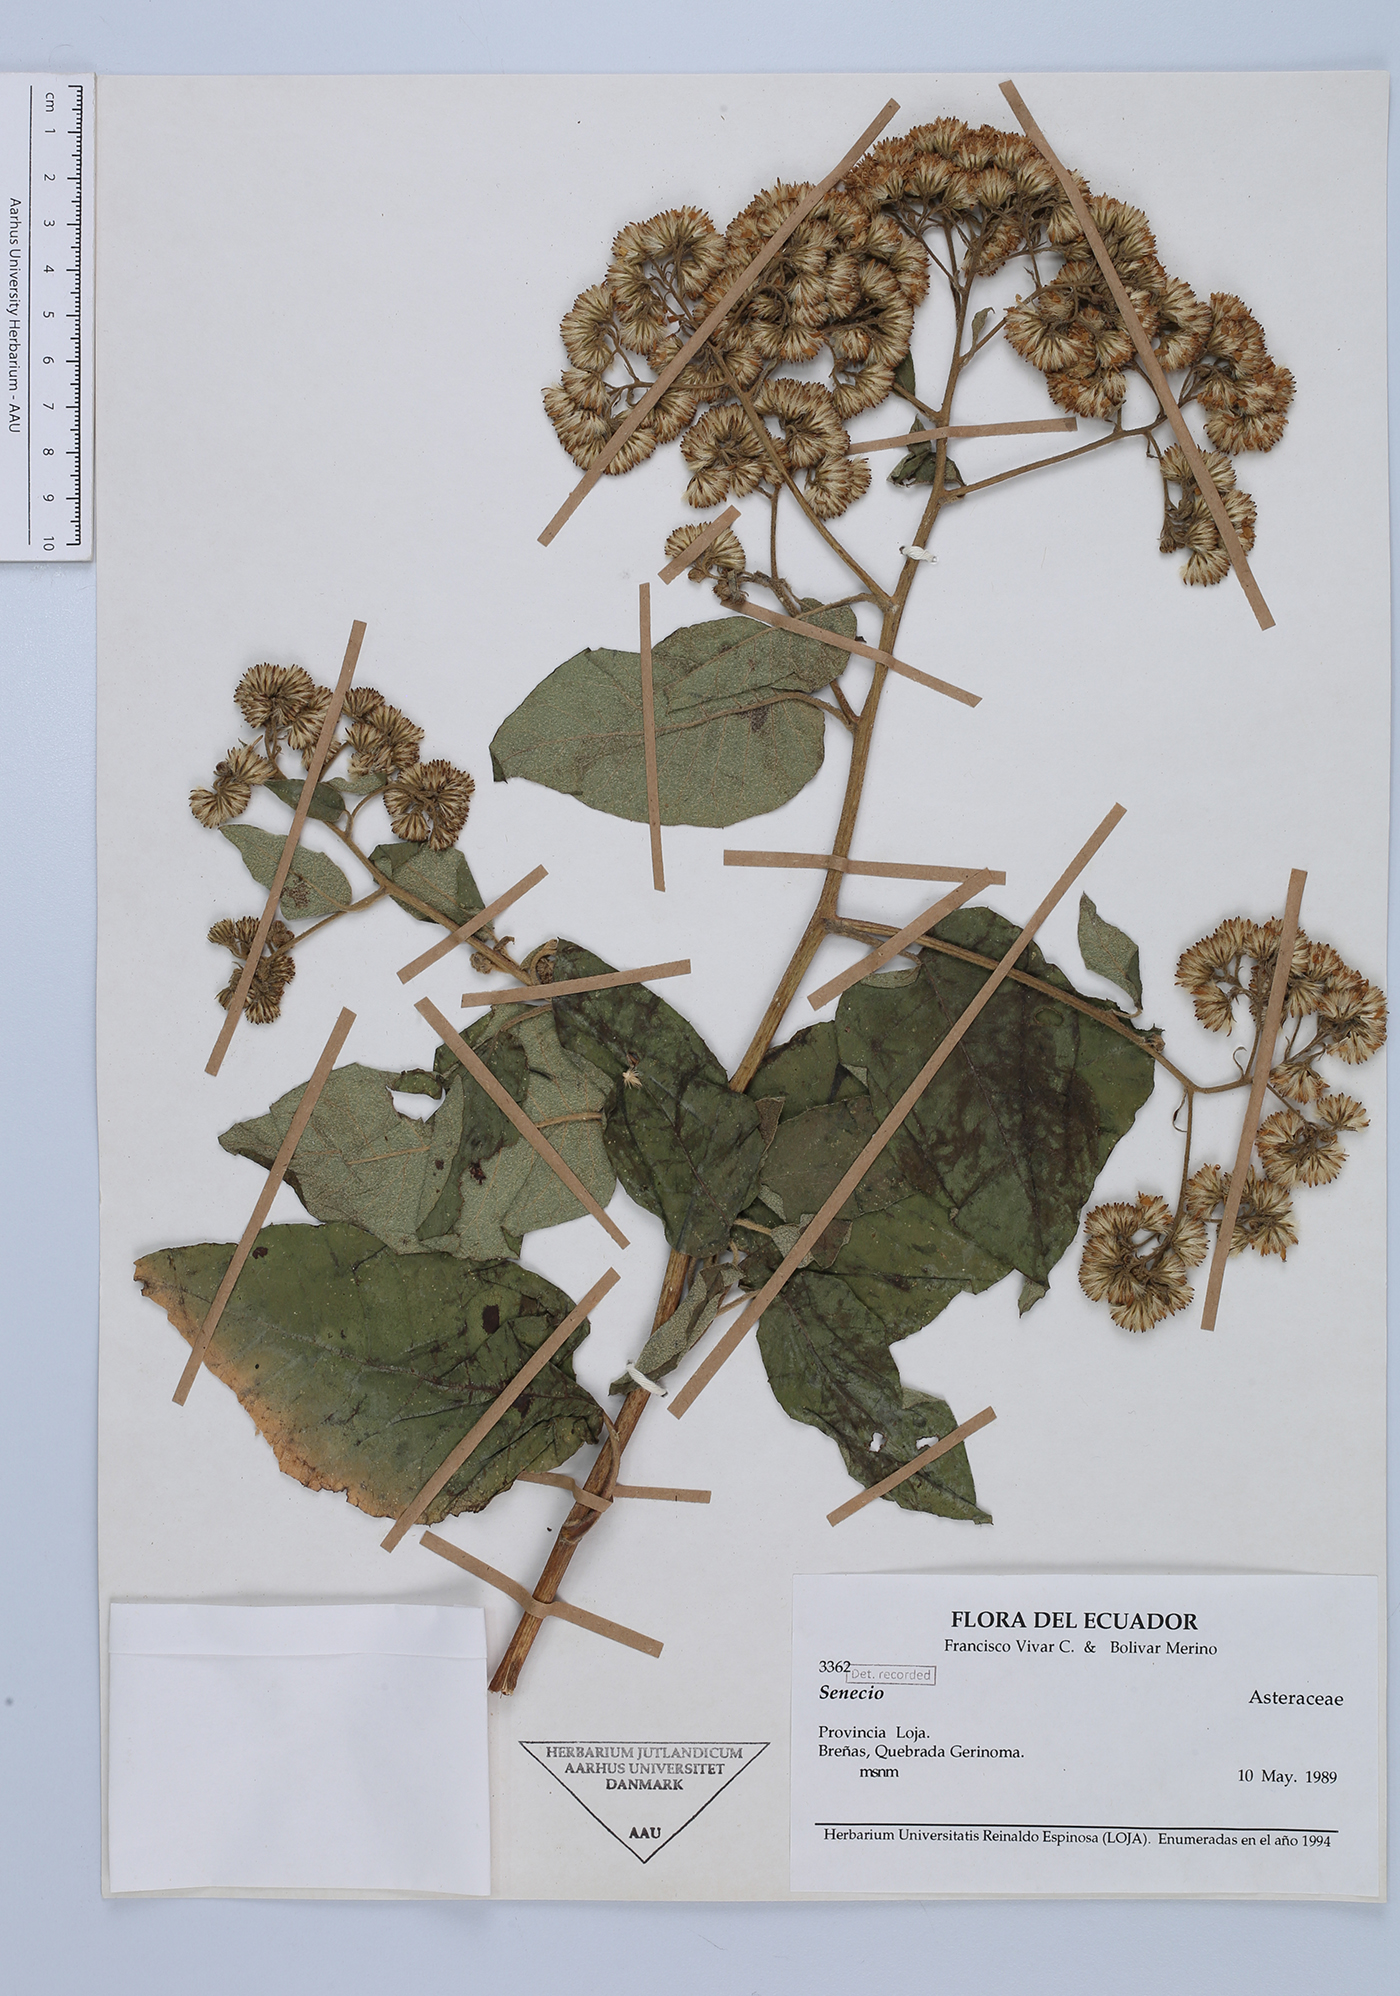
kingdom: Plantae
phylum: Tracheophyta
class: Magnoliopsida
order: Asterales
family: Asteraceae
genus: Senecio
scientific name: Senecio
